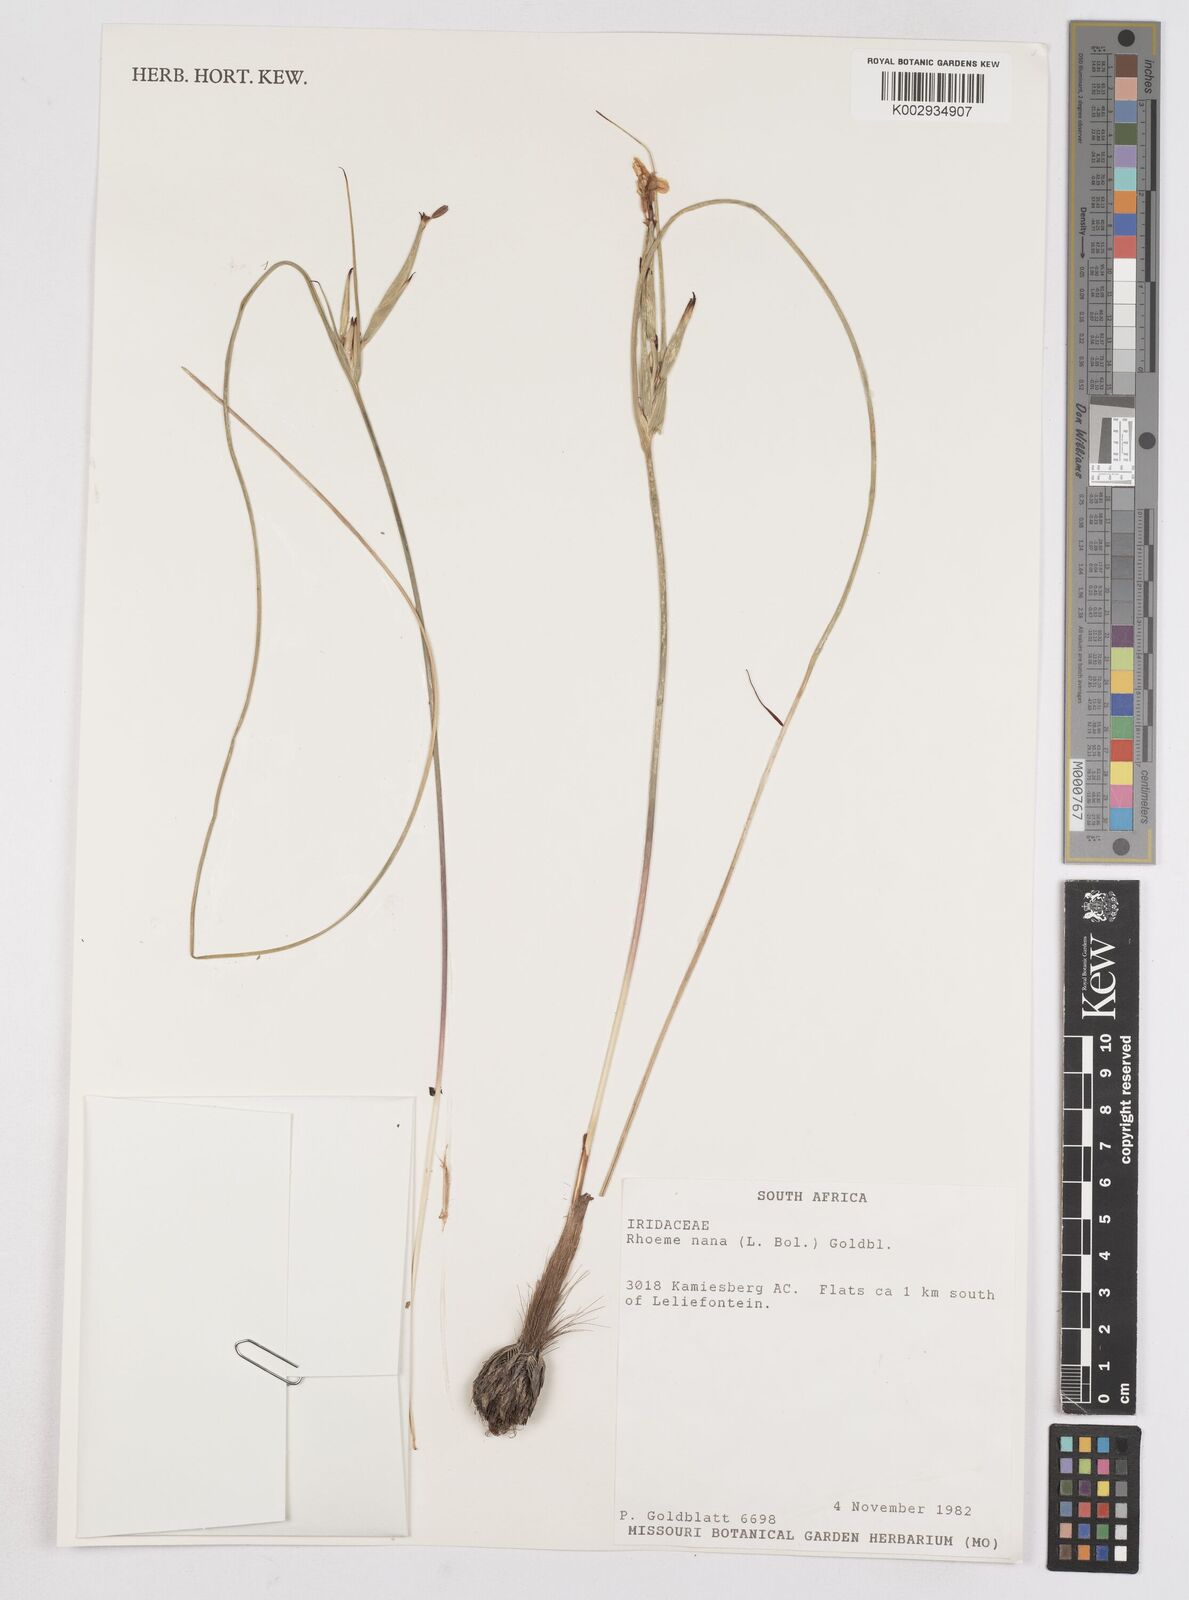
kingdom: Plantae
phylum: Tracheophyta
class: Liliopsida
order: Asparagales
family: Iridaceae
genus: Moraea
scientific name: Moraea nana
